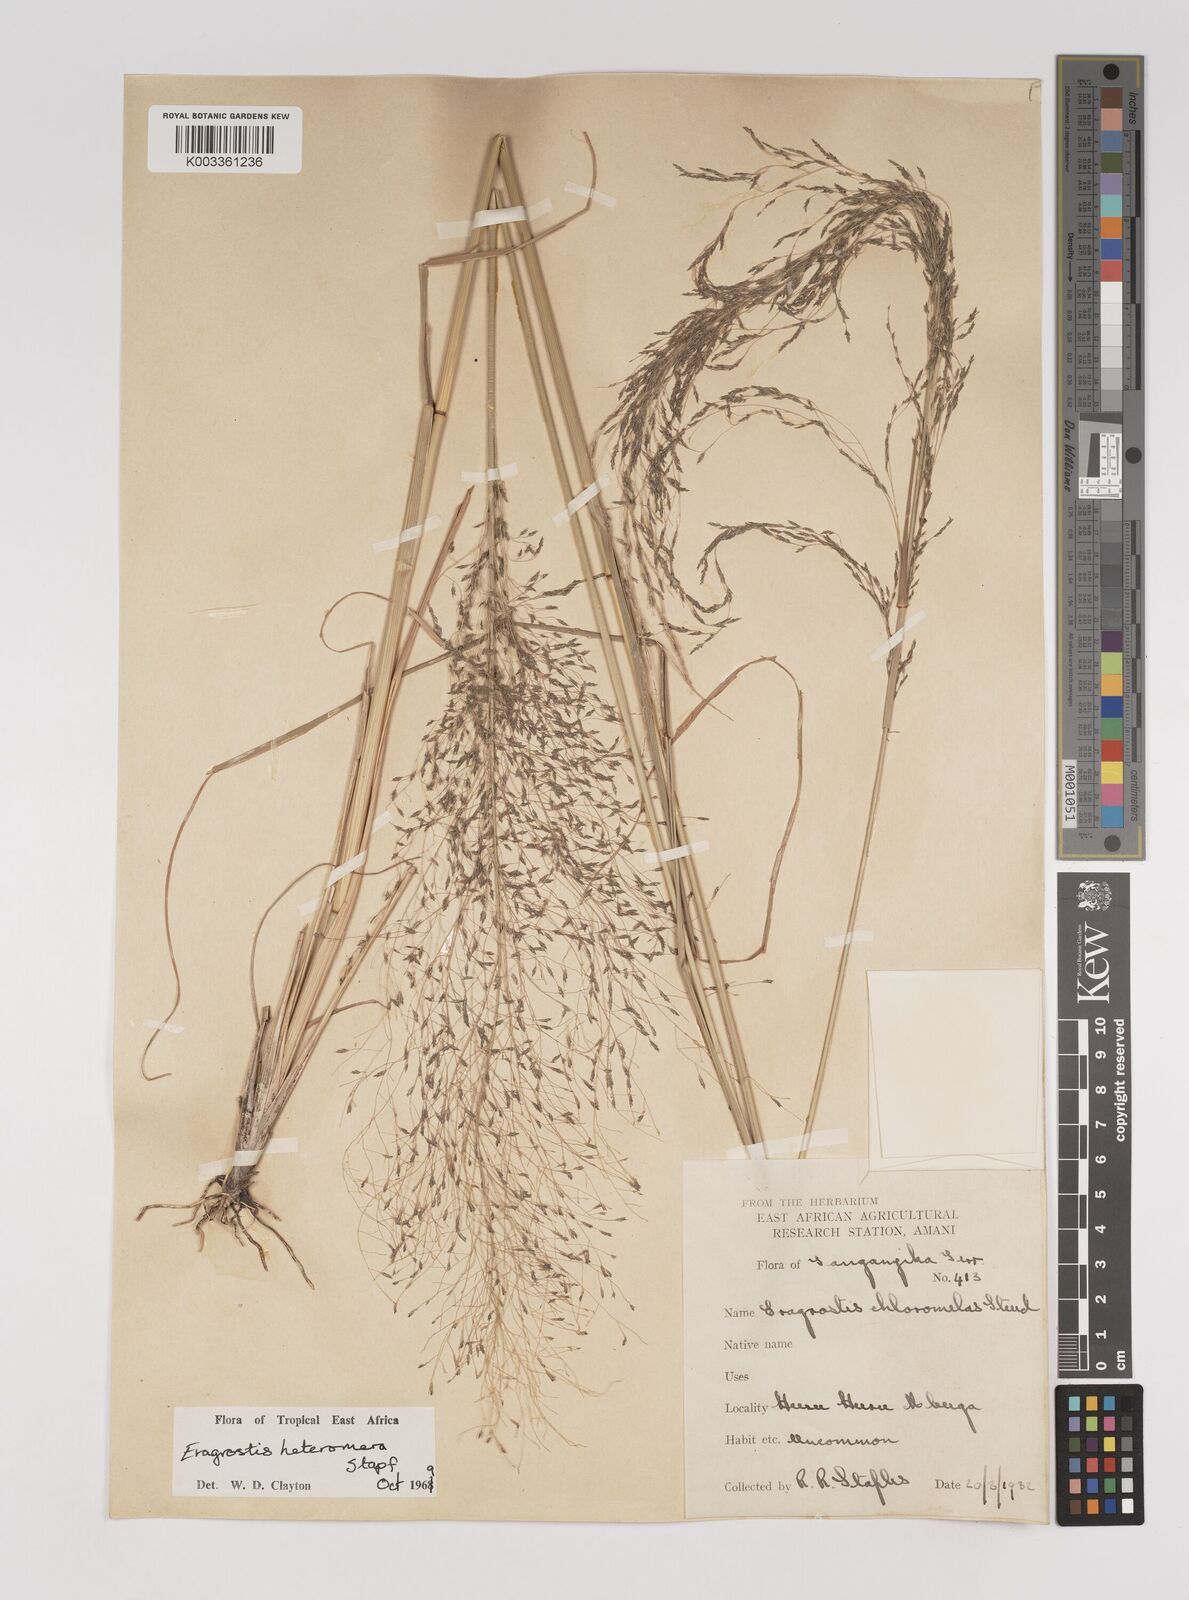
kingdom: Plantae
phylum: Tracheophyta
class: Liliopsida
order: Poales
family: Poaceae
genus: Eragrostis
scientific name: Eragrostis heteromera
